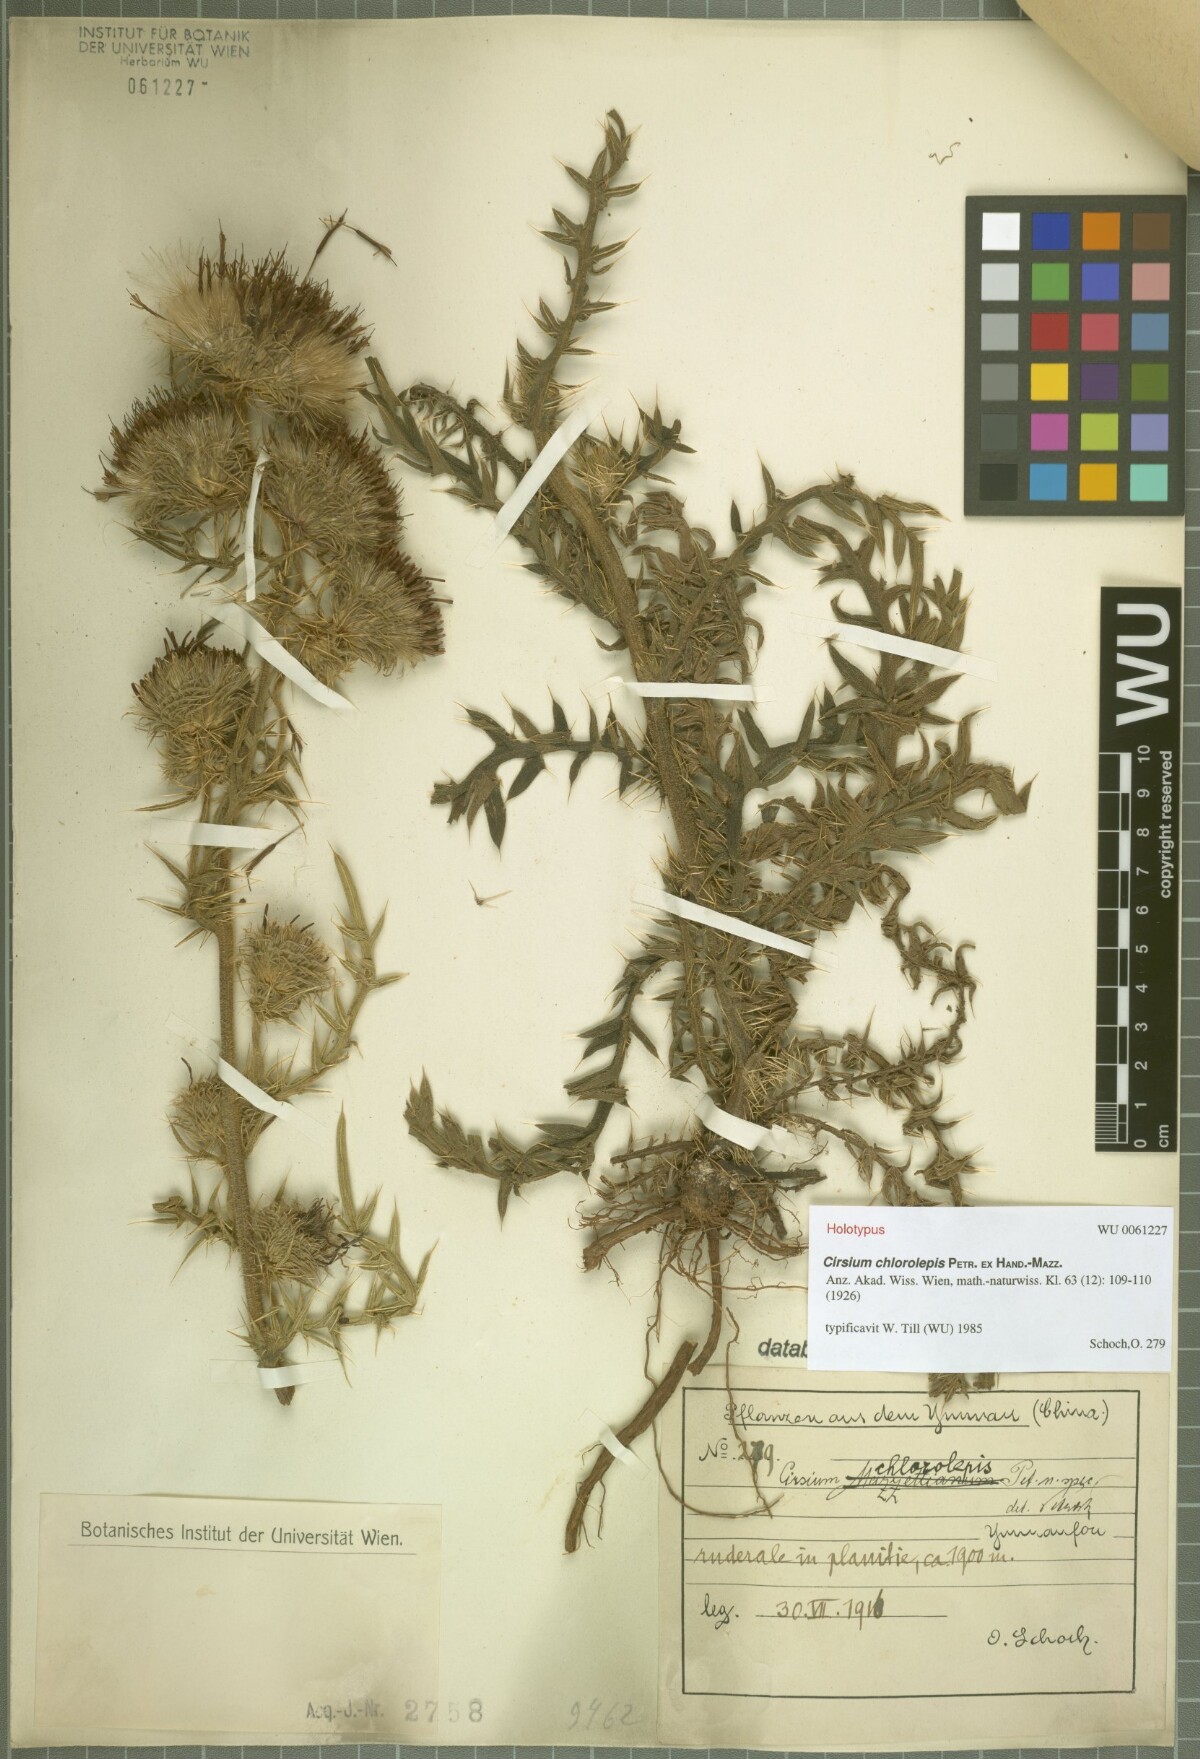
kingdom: Plantae
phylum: Tracheophyta
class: Magnoliopsida
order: Asterales
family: Asteraceae
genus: Lophiolepis
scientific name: Lophiolepis chlorolepis
